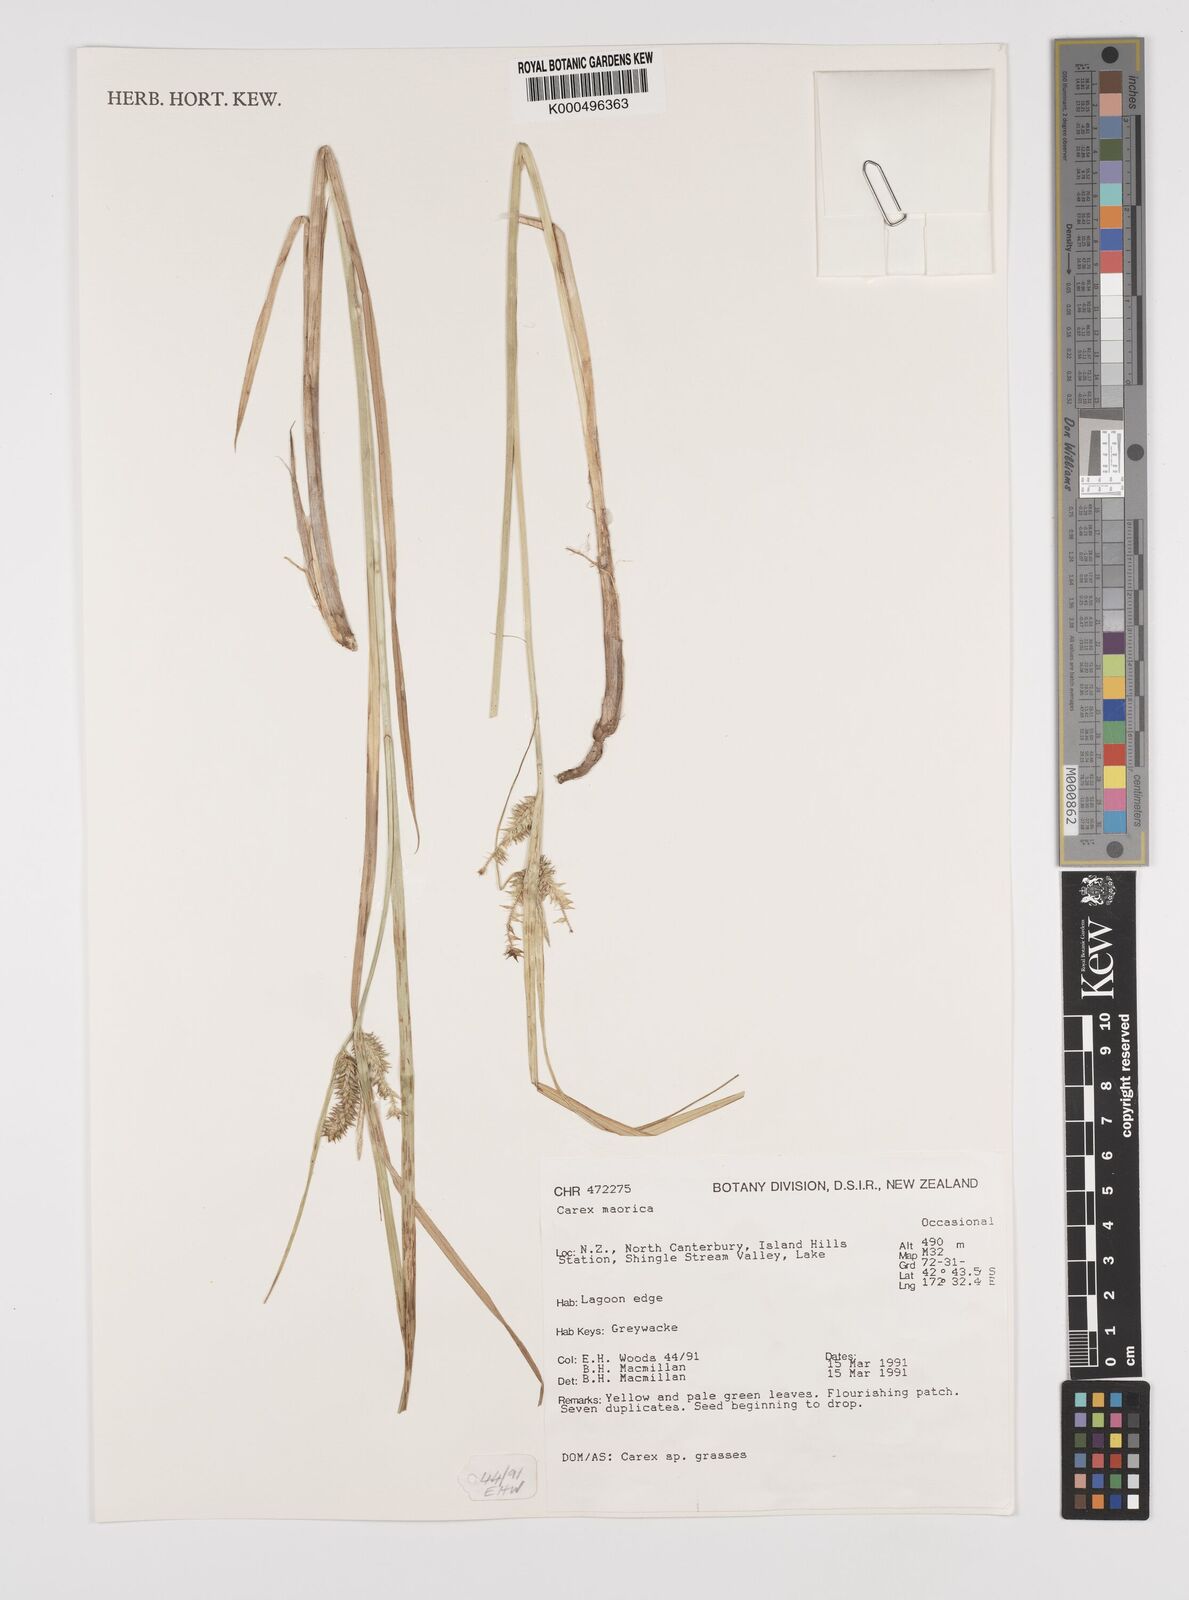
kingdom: Plantae
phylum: Tracheophyta
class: Liliopsida
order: Poales
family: Cyperaceae
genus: Carex
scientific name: Carex maorica
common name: Maori sedge
